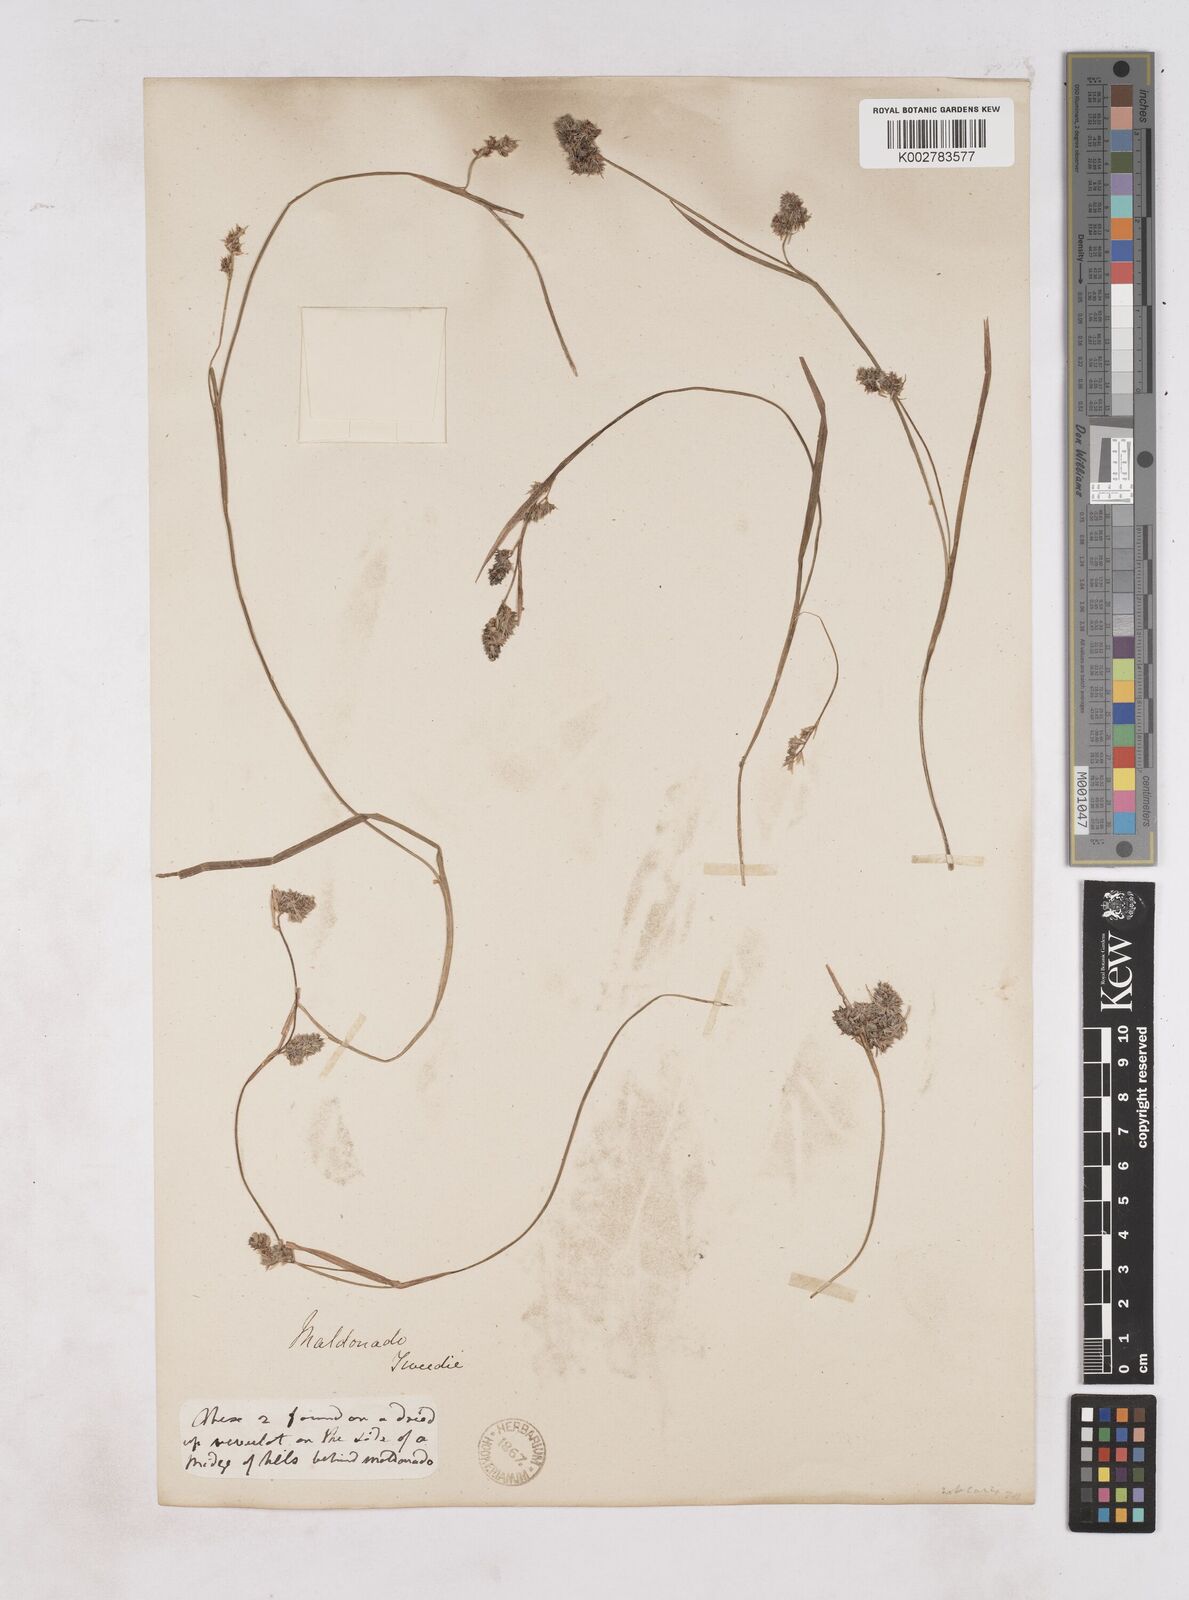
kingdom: Plantae
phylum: Tracheophyta
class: Liliopsida
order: Poales
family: Juncaceae
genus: Luzula
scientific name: Luzula
